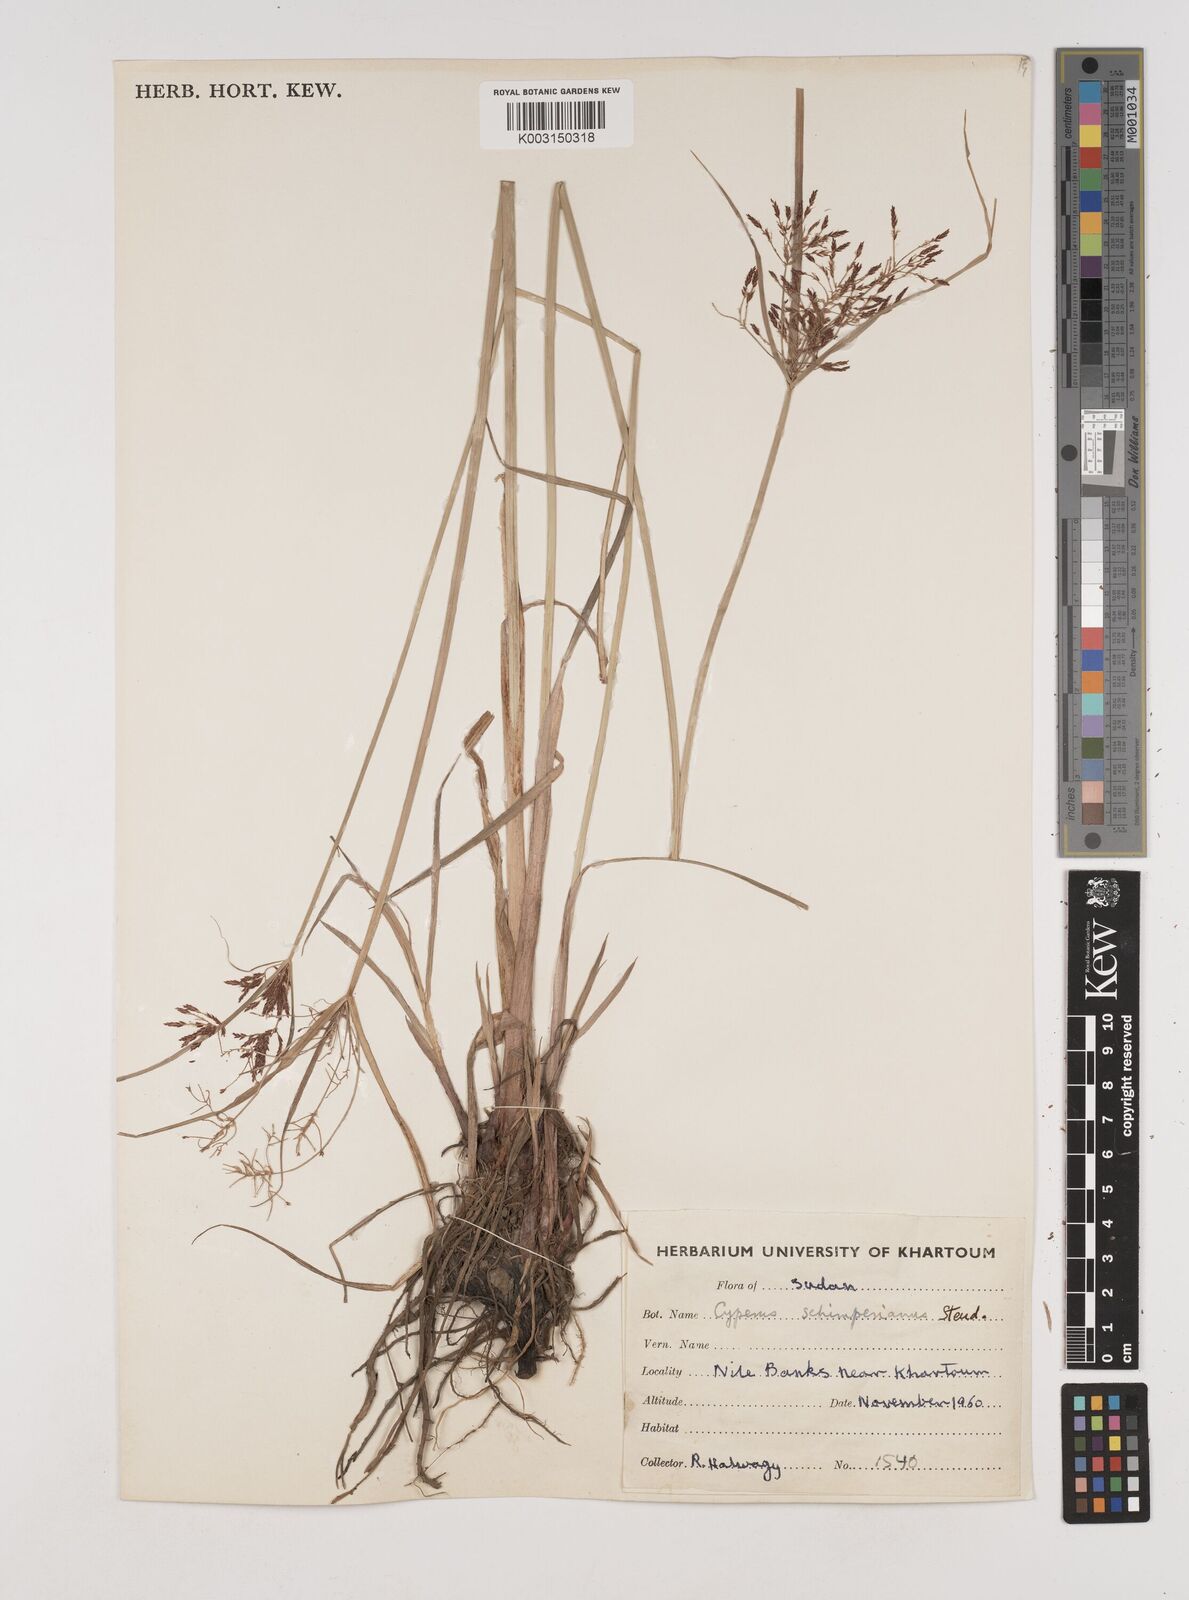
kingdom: Plantae
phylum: Tracheophyta
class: Liliopsida
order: Poales
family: Cyperaceae
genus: Cyperus
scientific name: Cyperus schimperianus
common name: Schimper flatsedge
